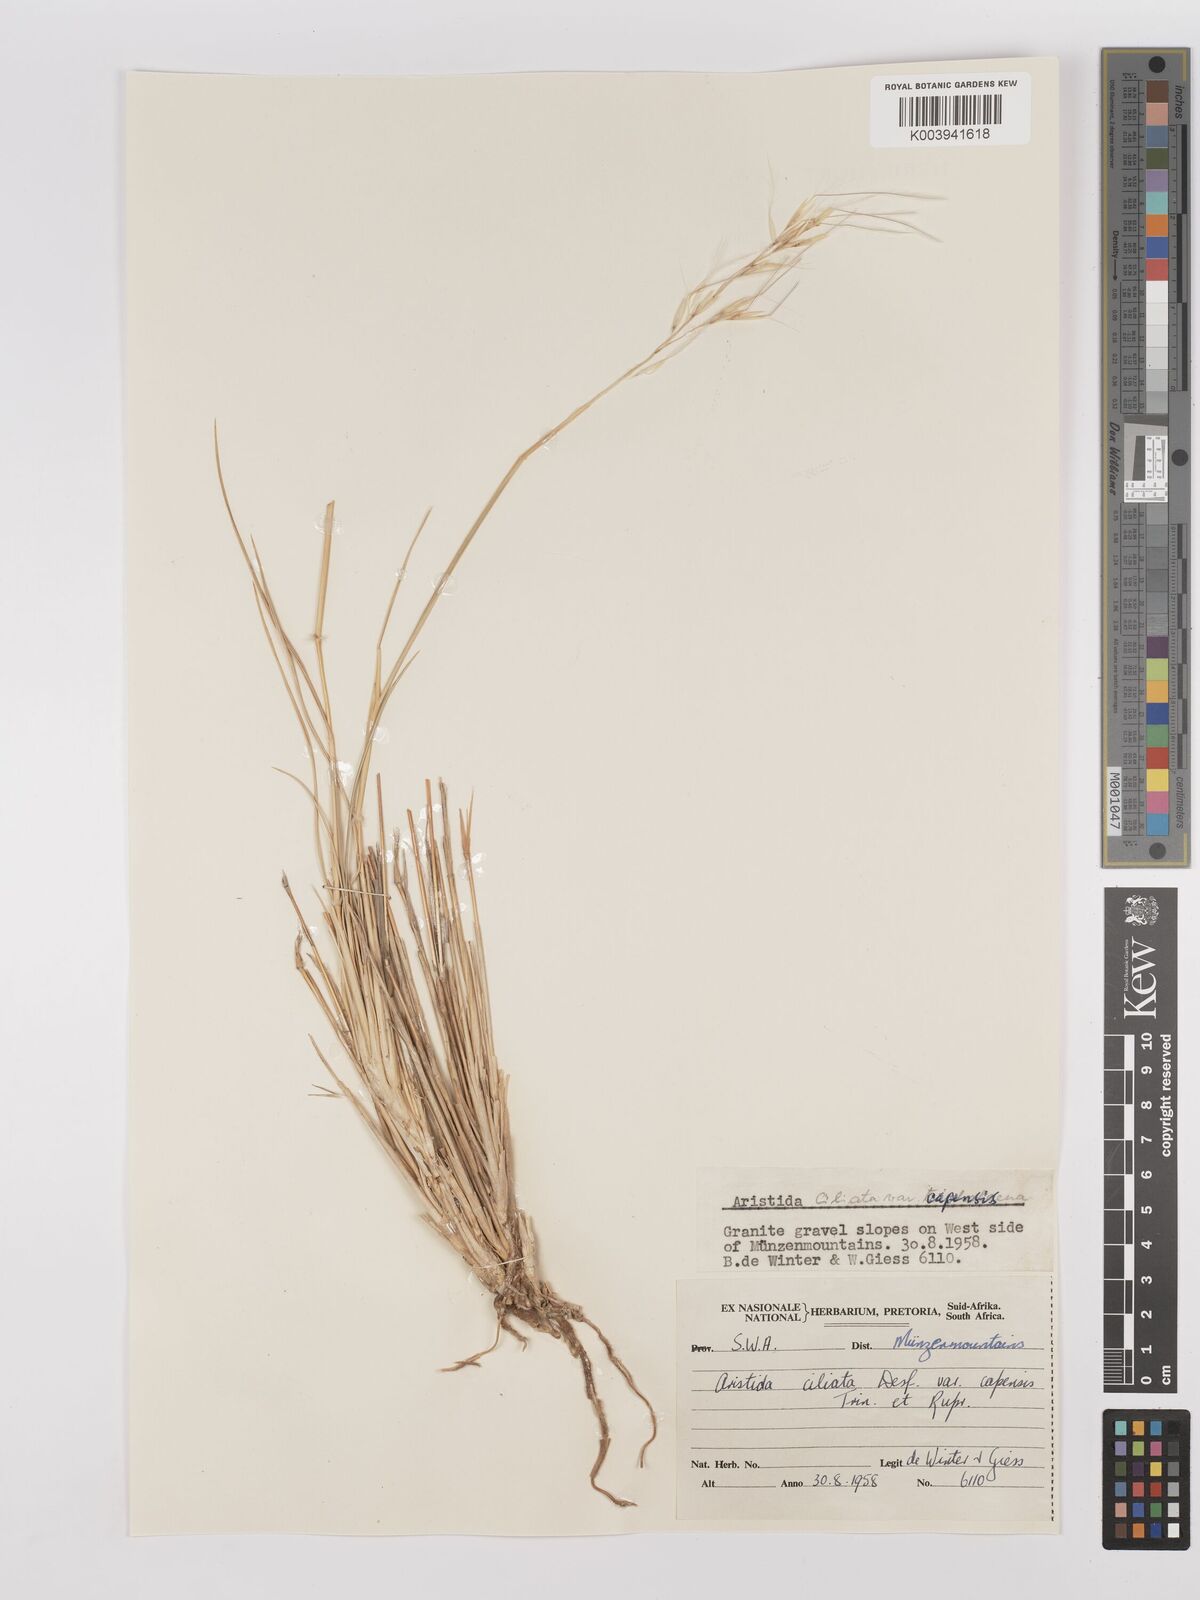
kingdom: Plantae
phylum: Tracheophyta
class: Liliopsida
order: Poales
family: Poaceae
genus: Stipagrostis
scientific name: Stipagrostis ciliata
